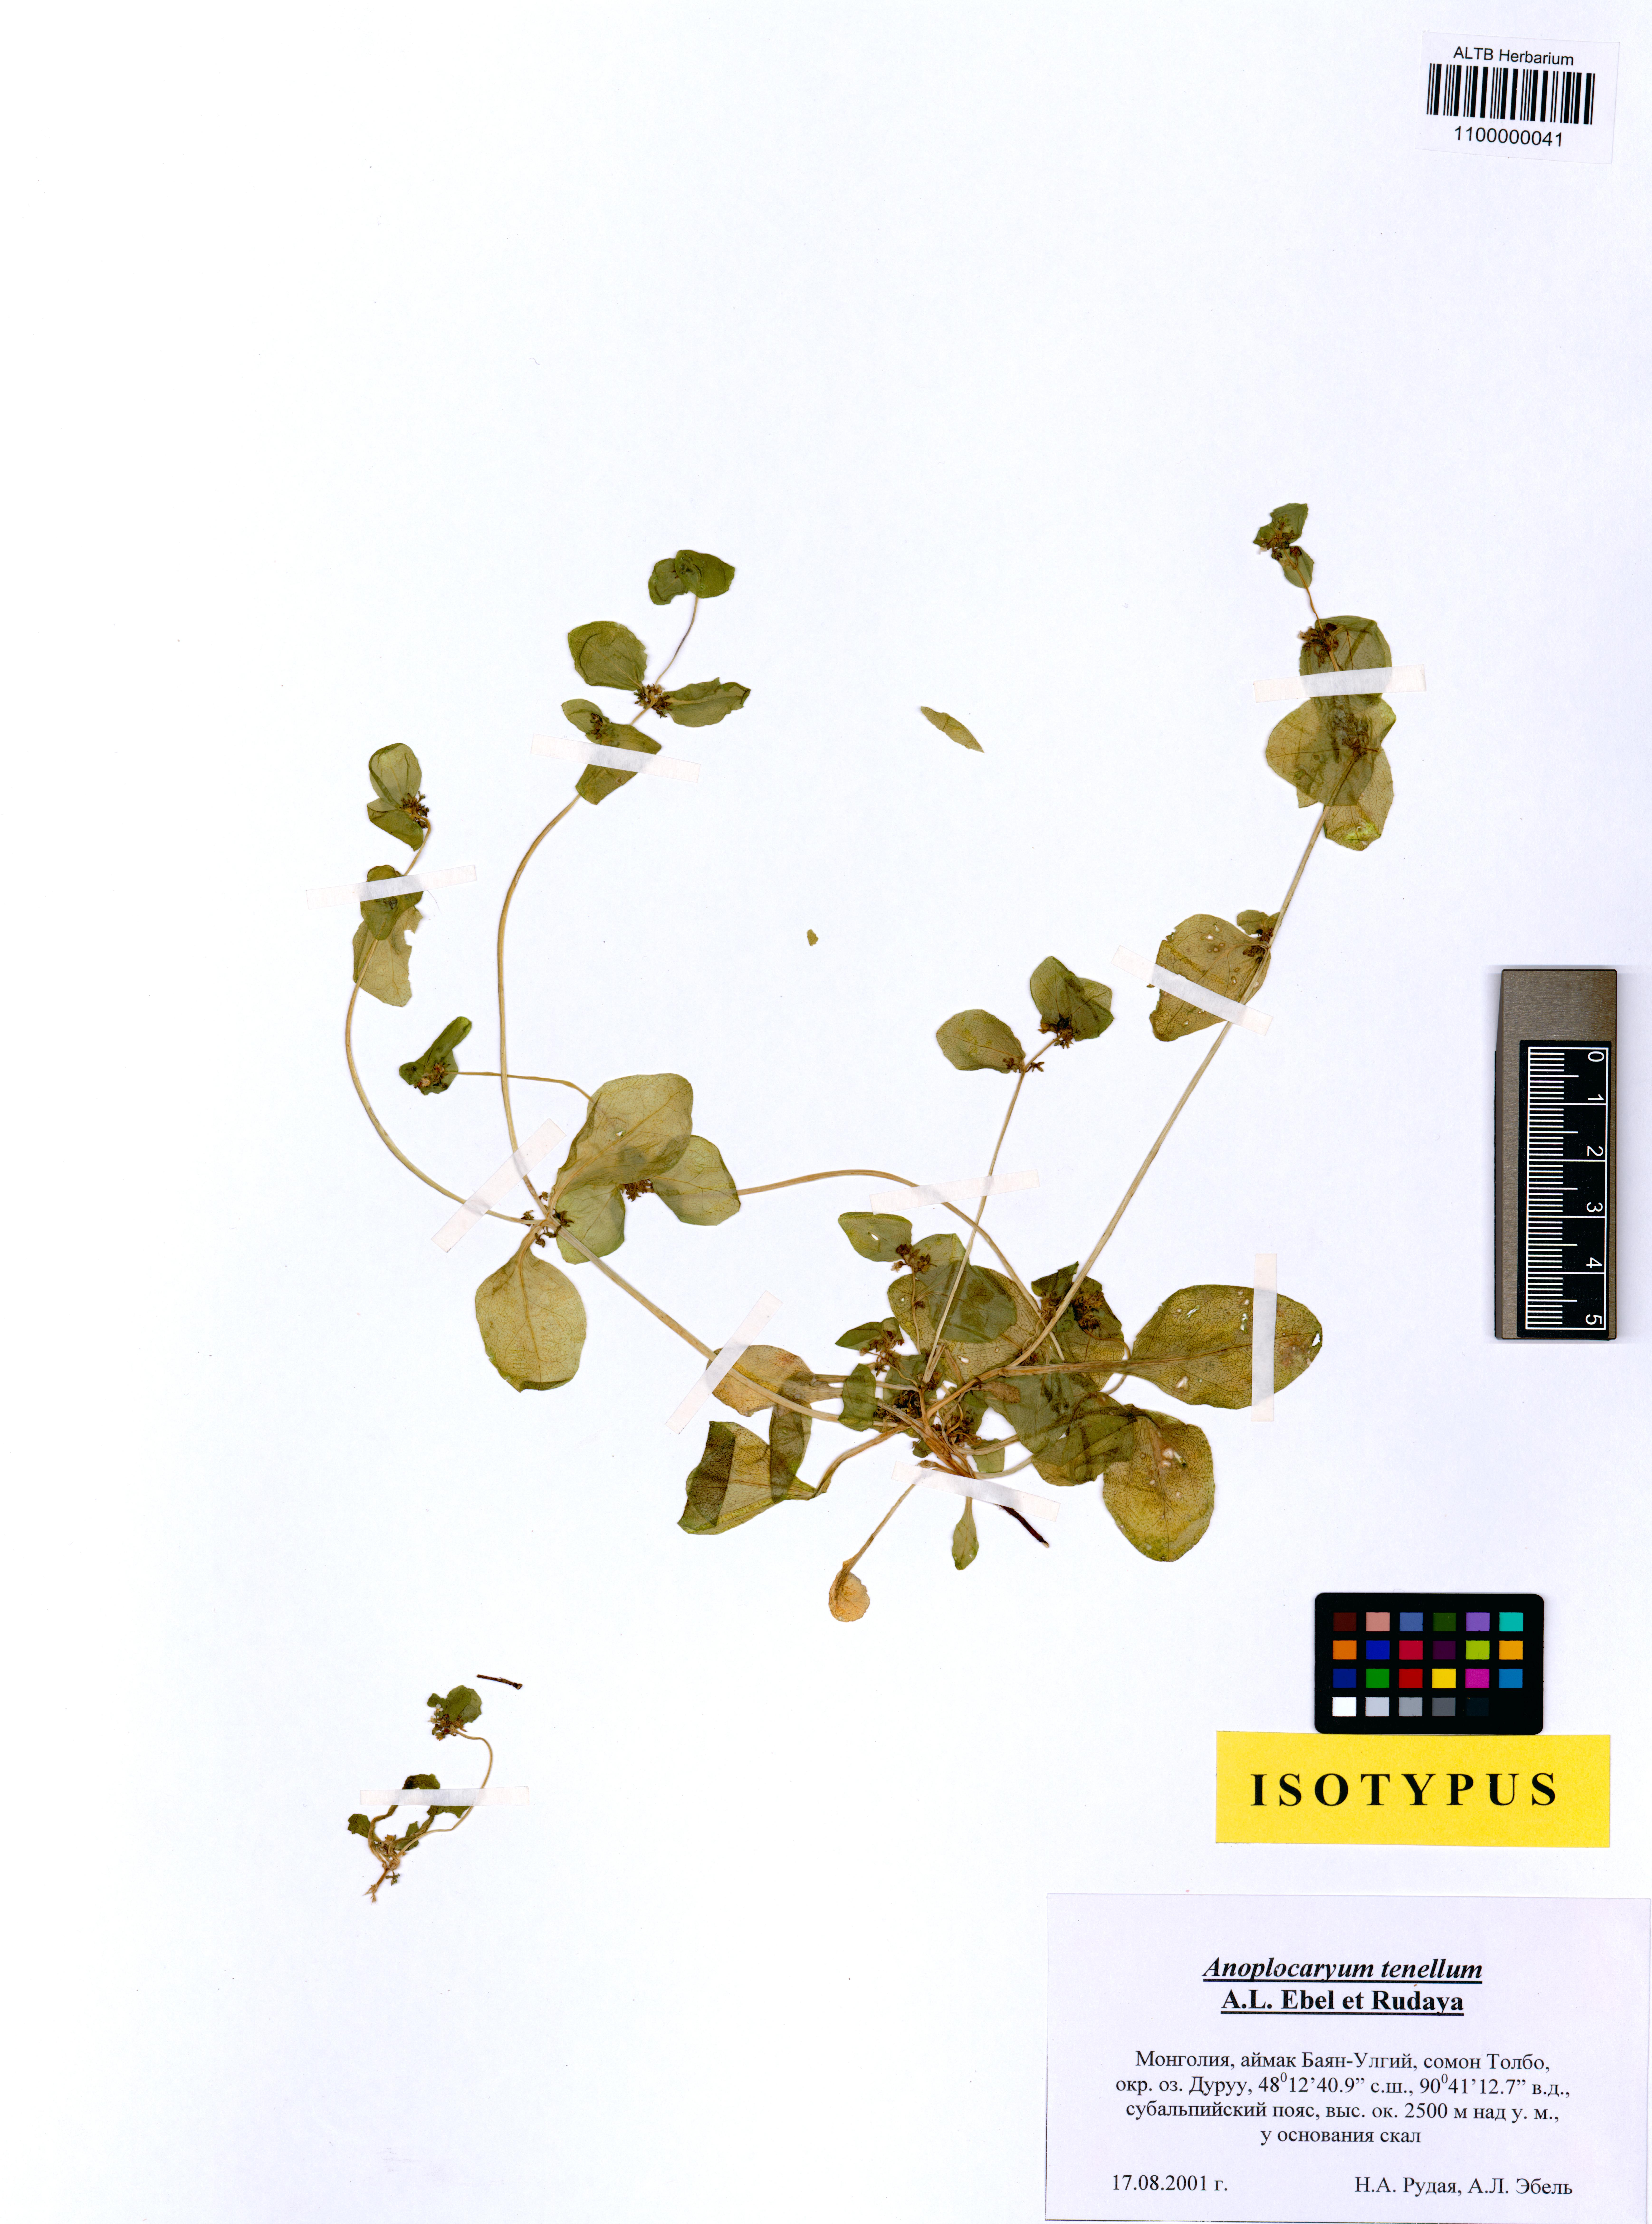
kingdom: Plantae
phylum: Tracheophyta
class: Magnoliopsida
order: Boraginales
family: Boraginaceae
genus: Anoplocaryum
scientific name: Anoplocaryum tenellum
